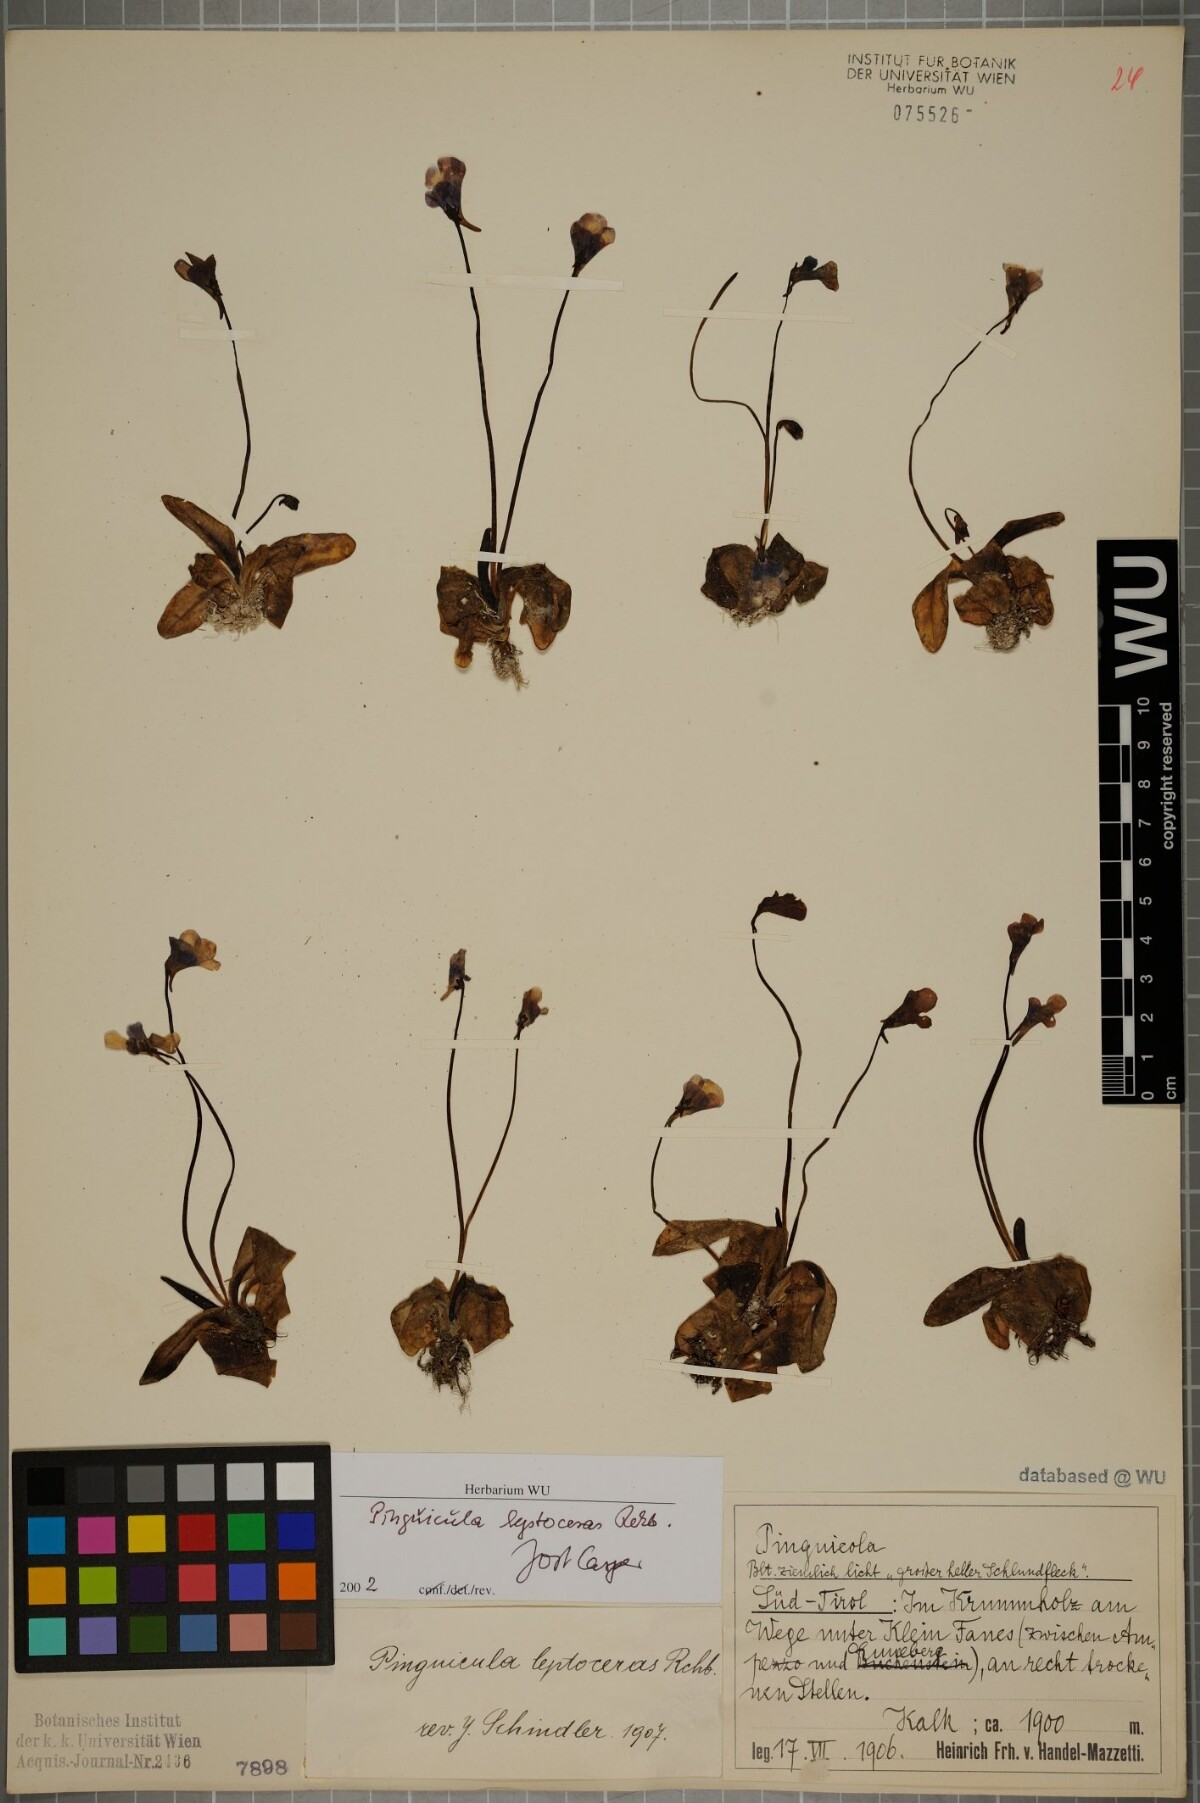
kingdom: Plantae
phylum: Tracheophyta
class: Magnoliopsida
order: Lamiales
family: Lentibulariaceae
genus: Pinguicula
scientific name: Pinguicula leptoceras
